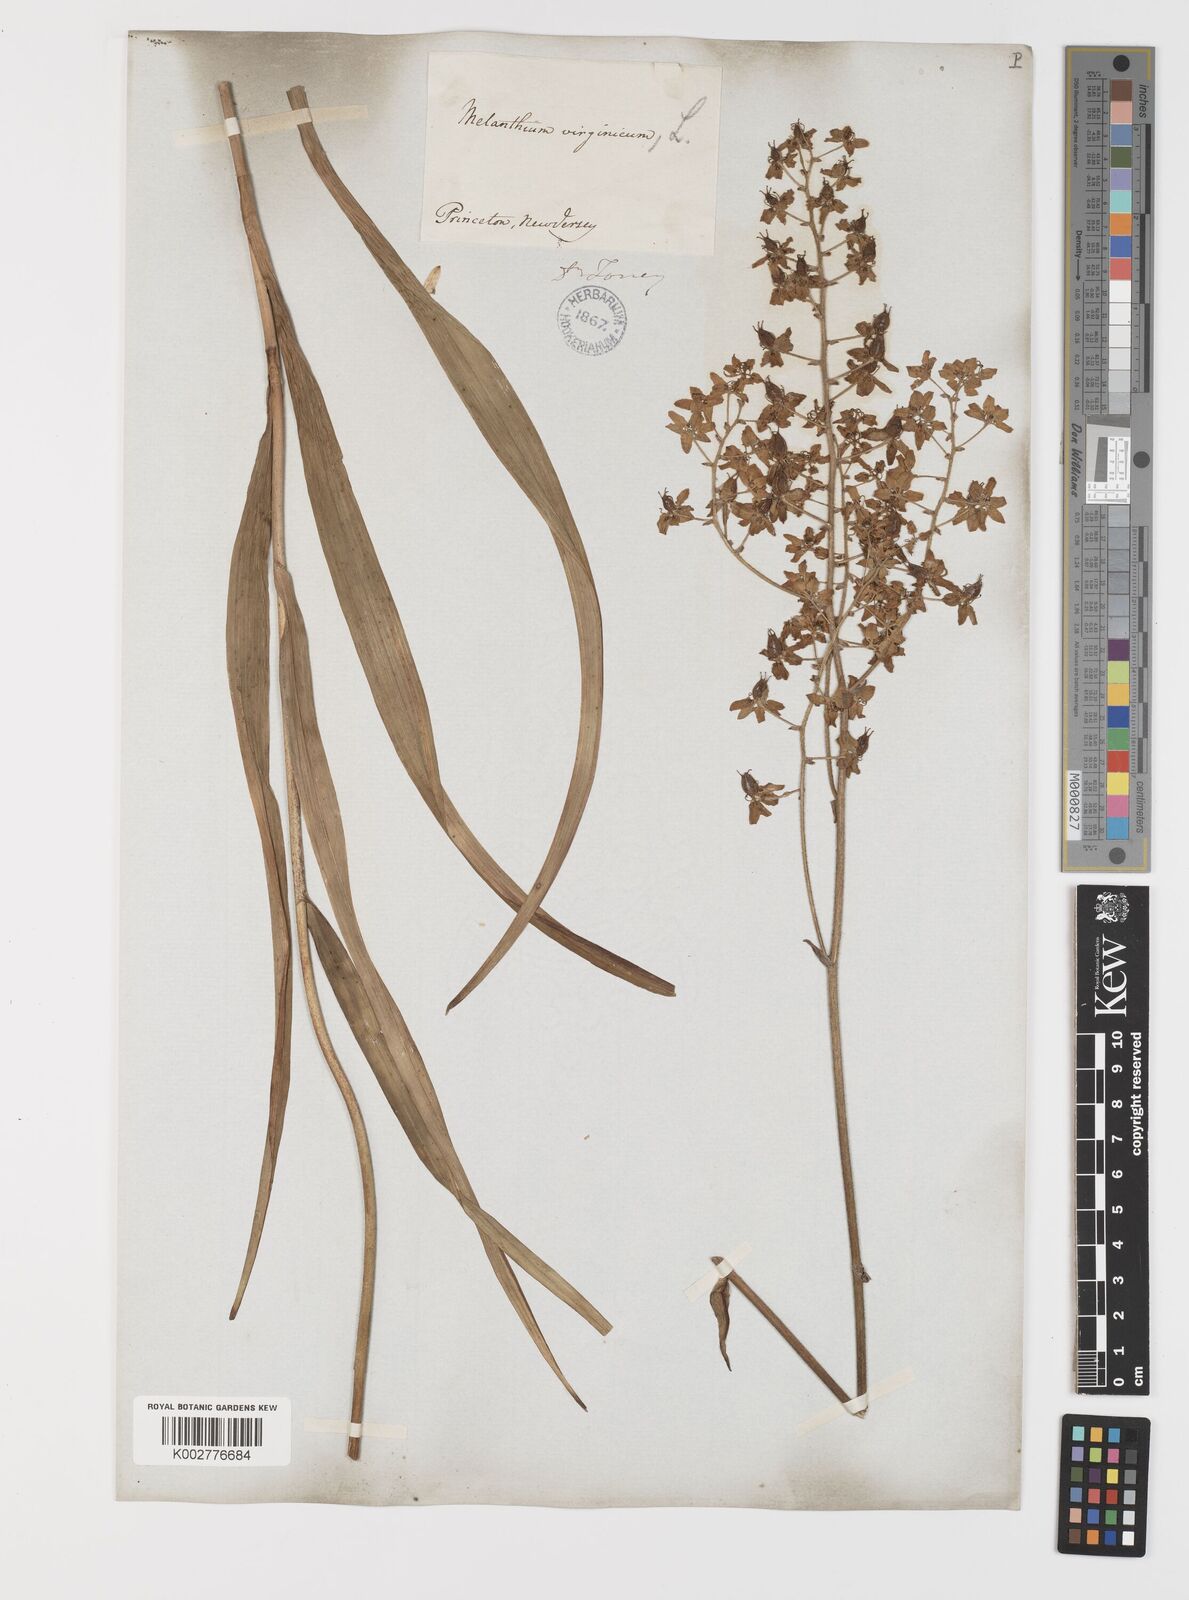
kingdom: Plantae
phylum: Tracheophyta
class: Liliopsida
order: Liliales
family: Melanthiaceae
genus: Melanthium
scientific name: Melanthium virginicum
